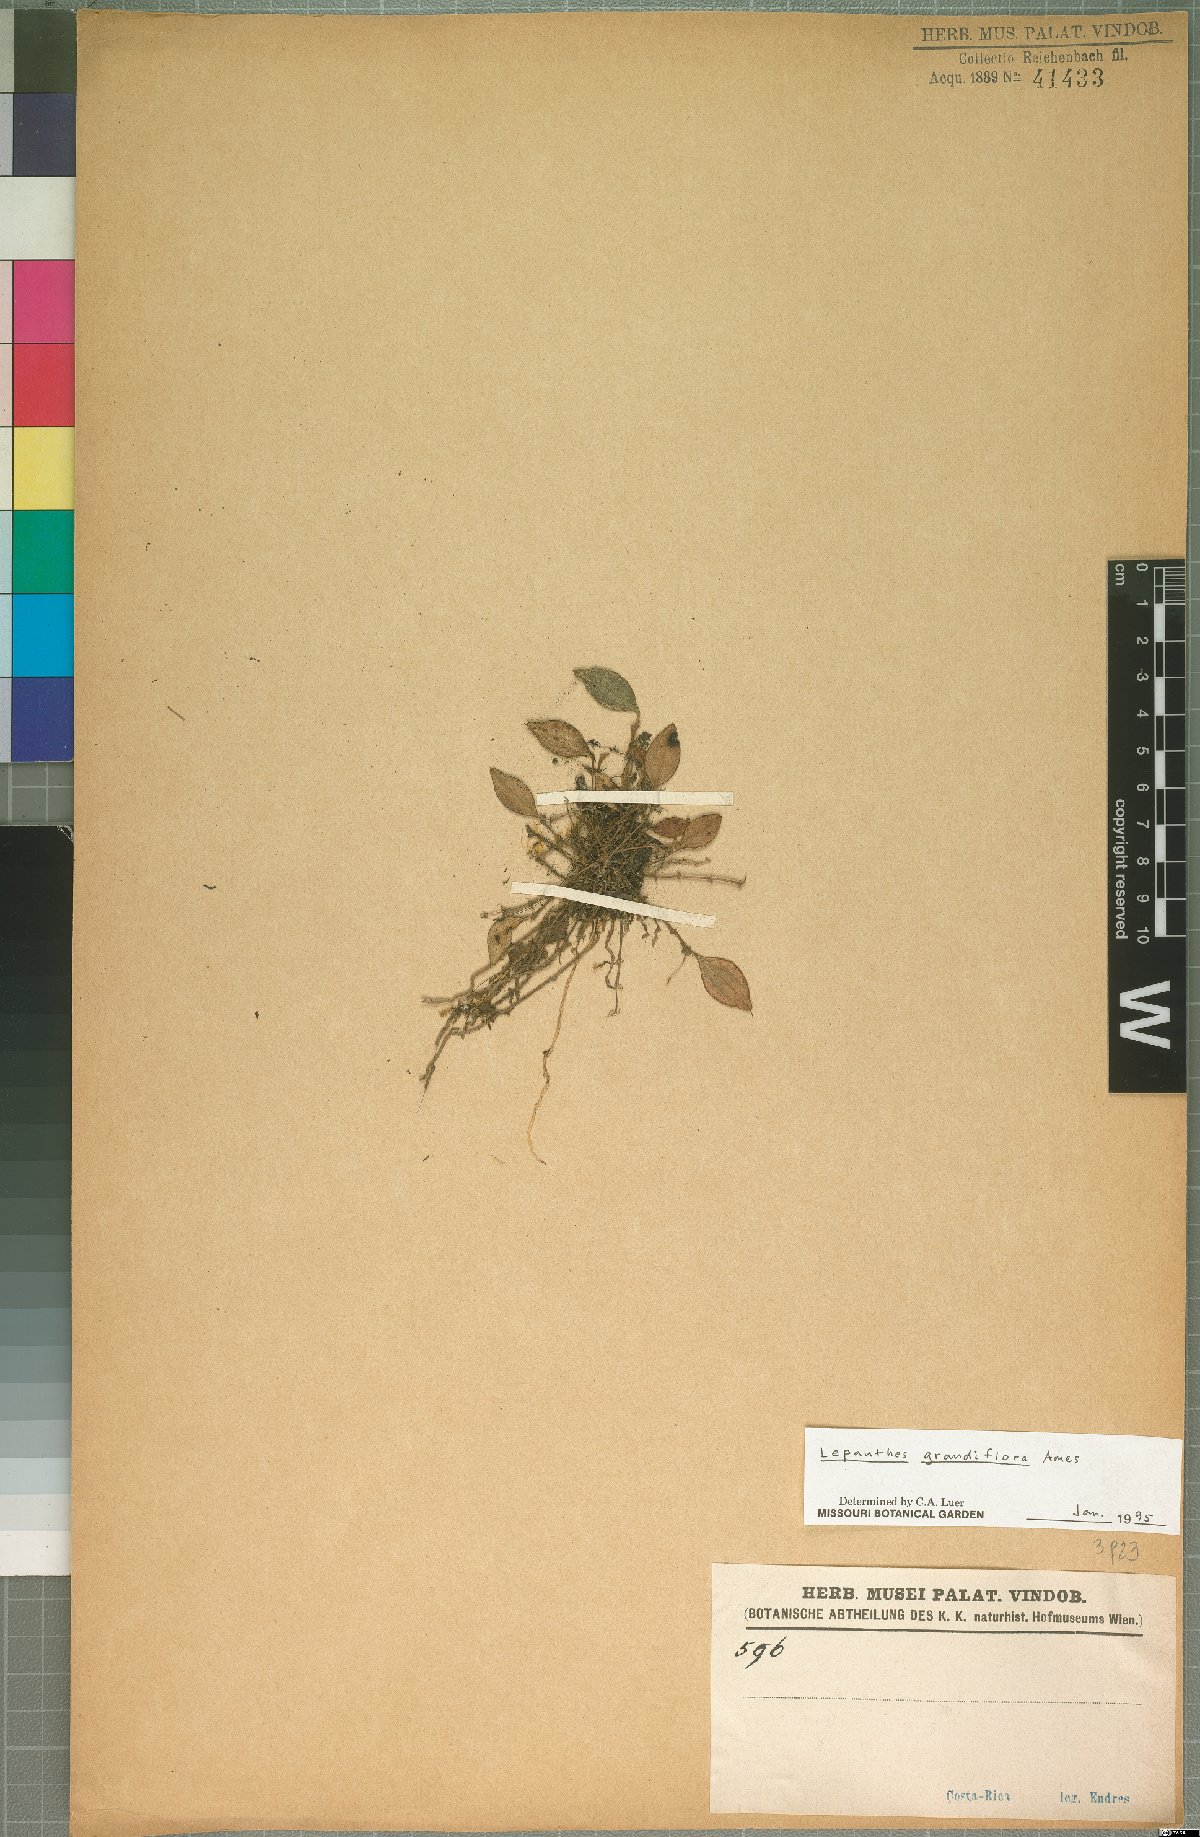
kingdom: Plantae
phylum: Tracheophyta
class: Liliopsida
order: Asparagales
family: Orchidaceae
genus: Lepanthes
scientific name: Lepanthes grandiflora
